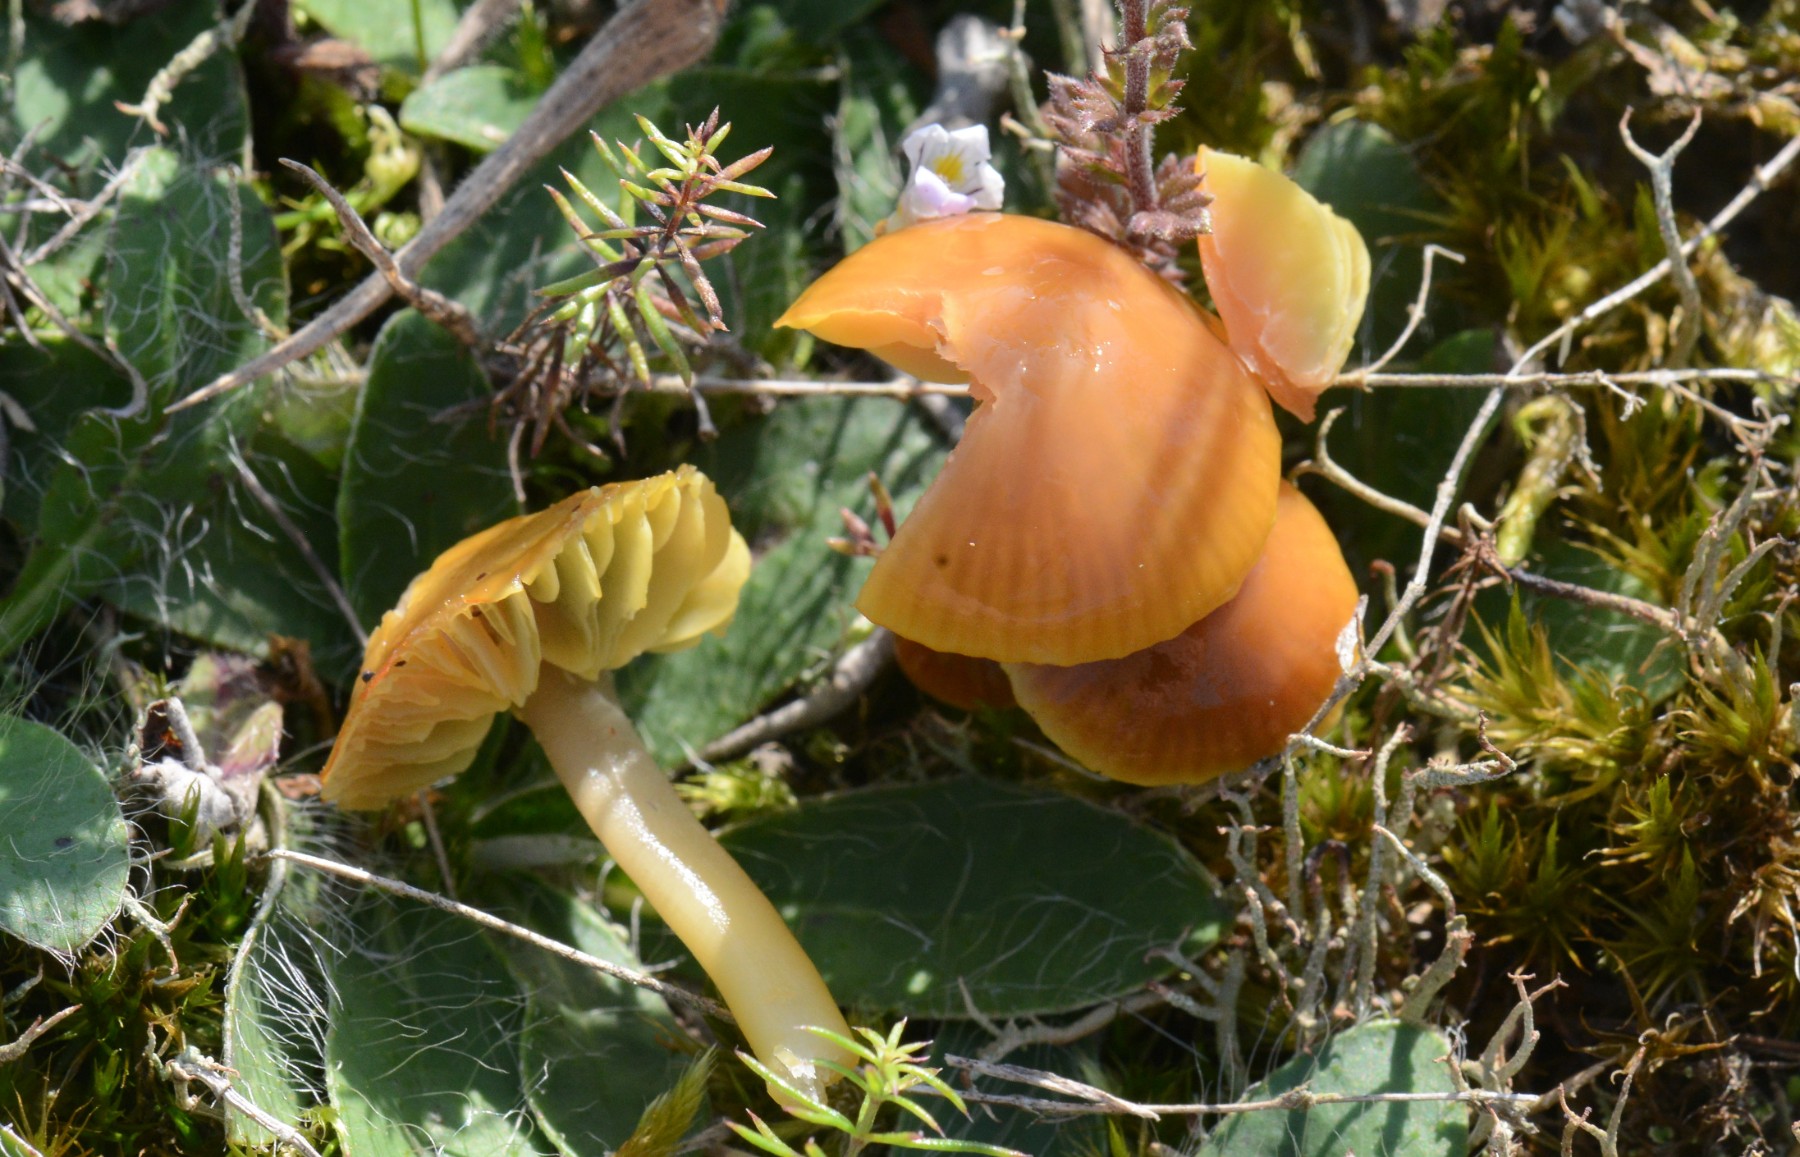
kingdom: Fungi
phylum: Basidiomycota
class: Agaricomycetes
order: Agaricales
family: Hygrophoraceae
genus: Gliophorus
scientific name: Gliophorus psittacinus
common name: papegøje-vokshat
